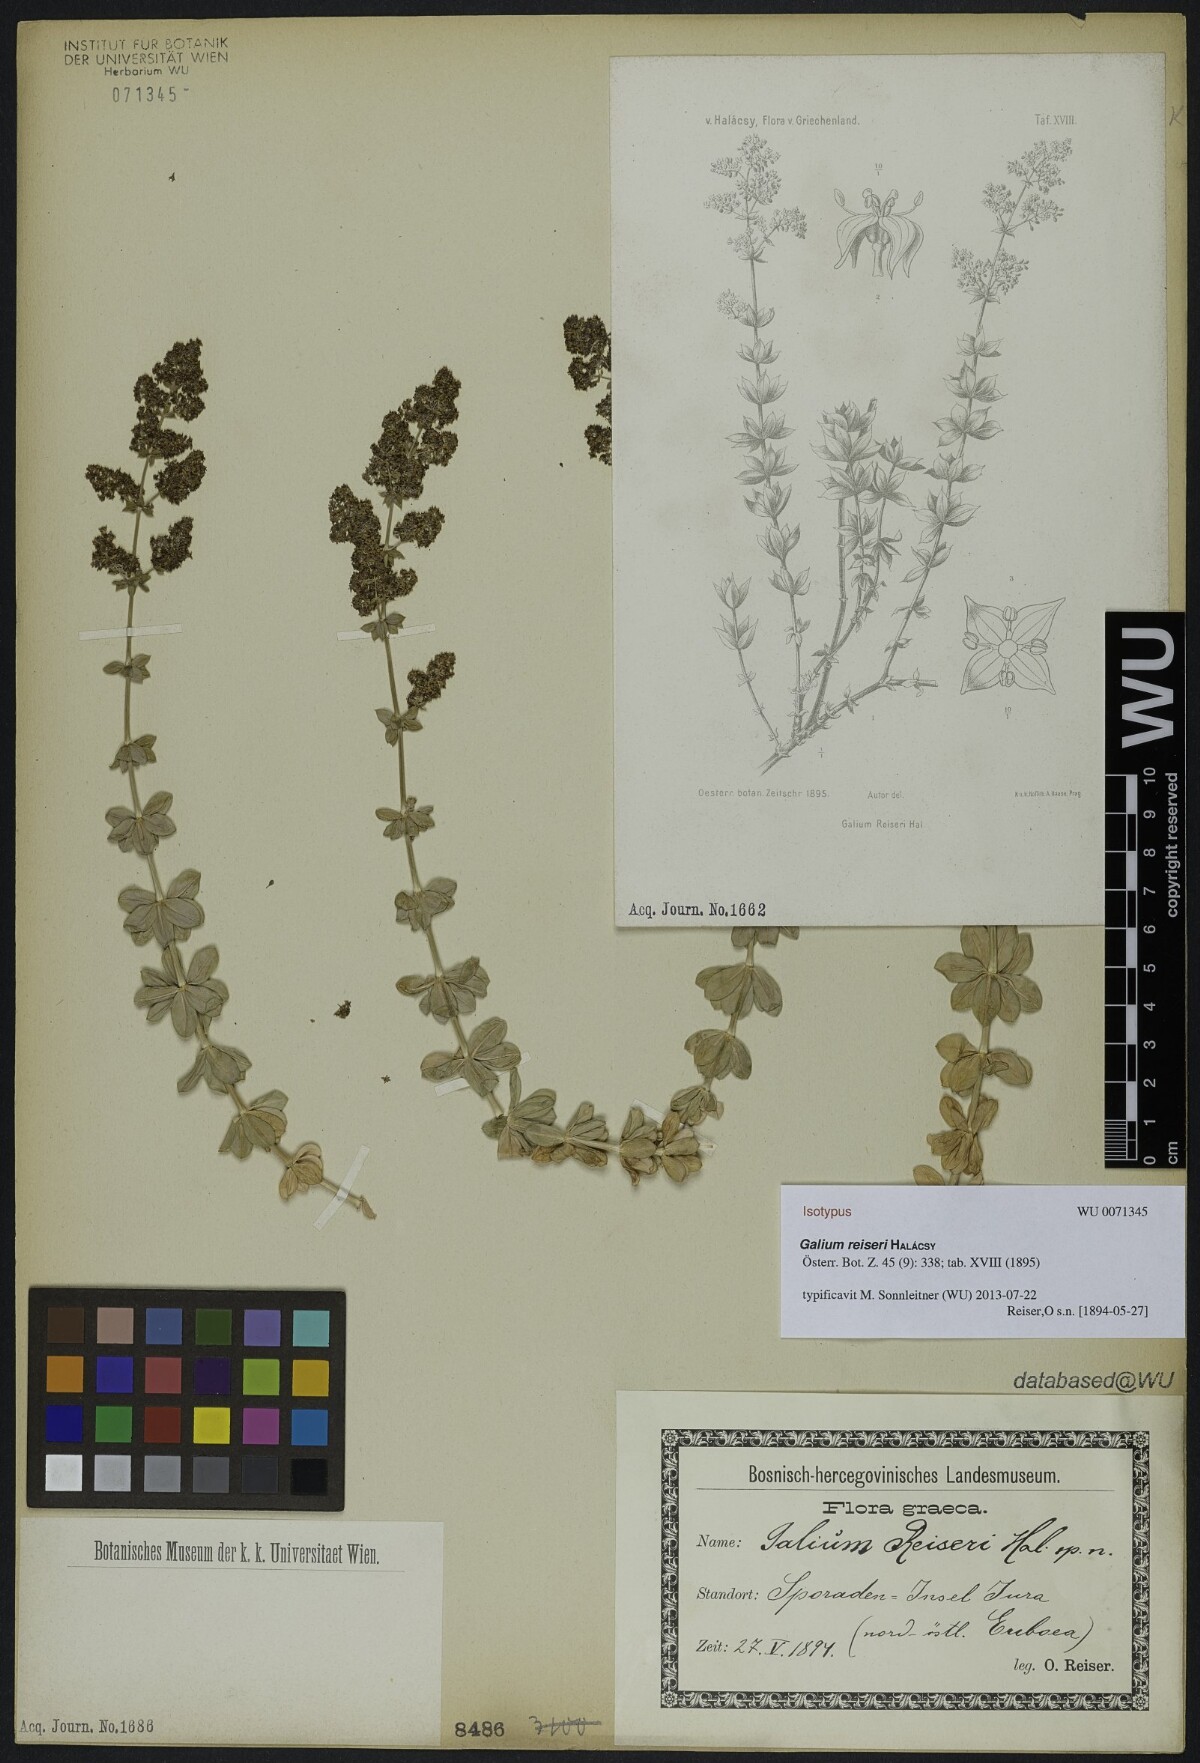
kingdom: Plantae
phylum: Tracheophyta
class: Magnoliopsida
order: Gentianales
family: Rubiaceae
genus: Galium
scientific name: Galium reiseri
